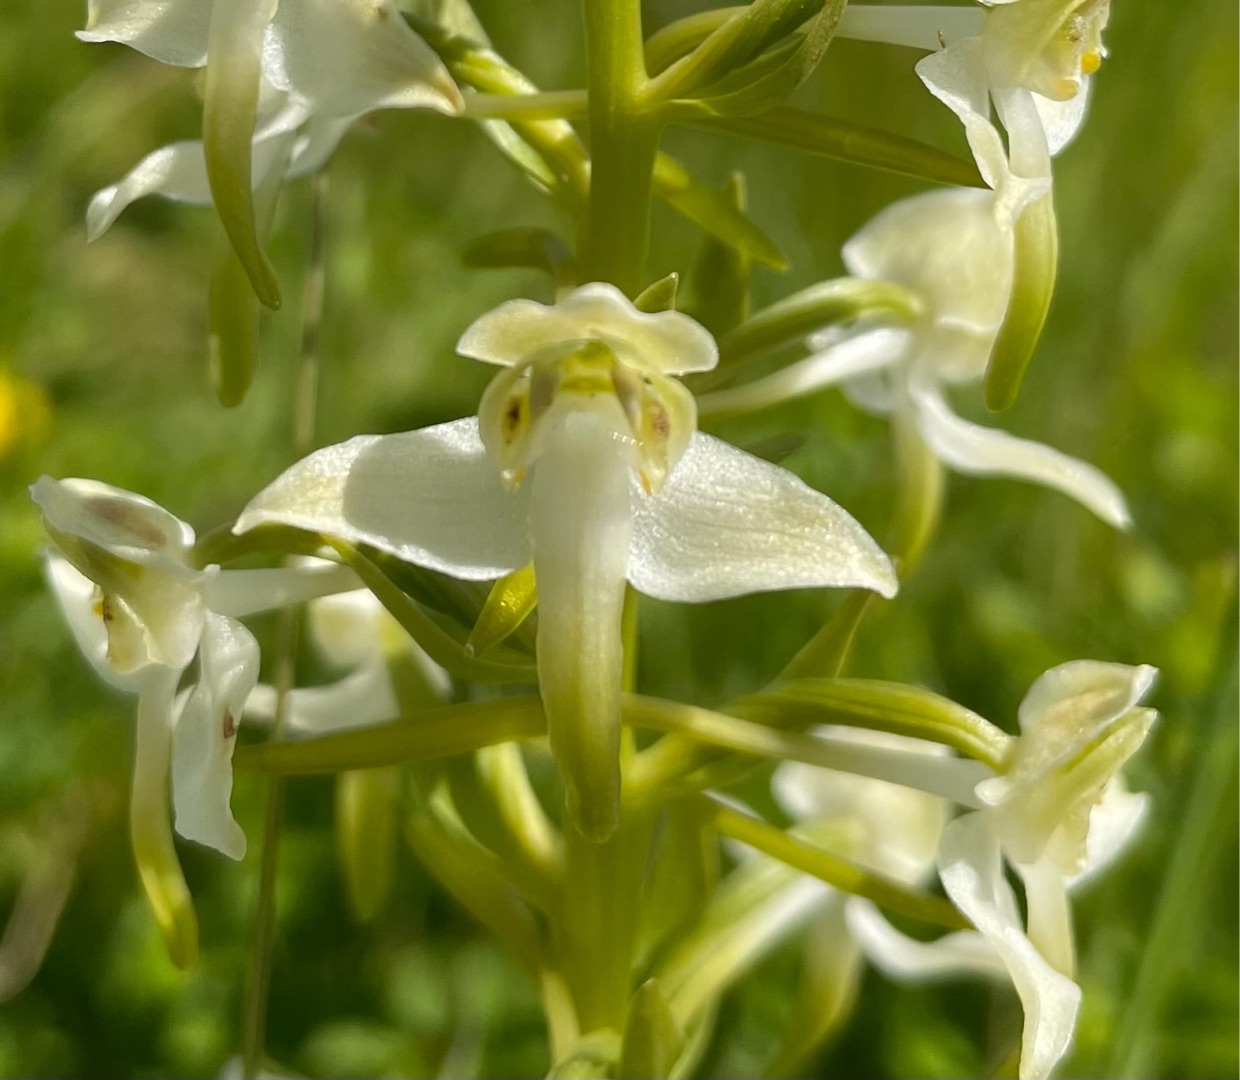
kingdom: Plantae
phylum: Tracheophyta
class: Liliopsida
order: Asparagales
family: Orchidaceae
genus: Platanthera
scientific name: Platanthera chlorantha
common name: Skov-gøgelilje
